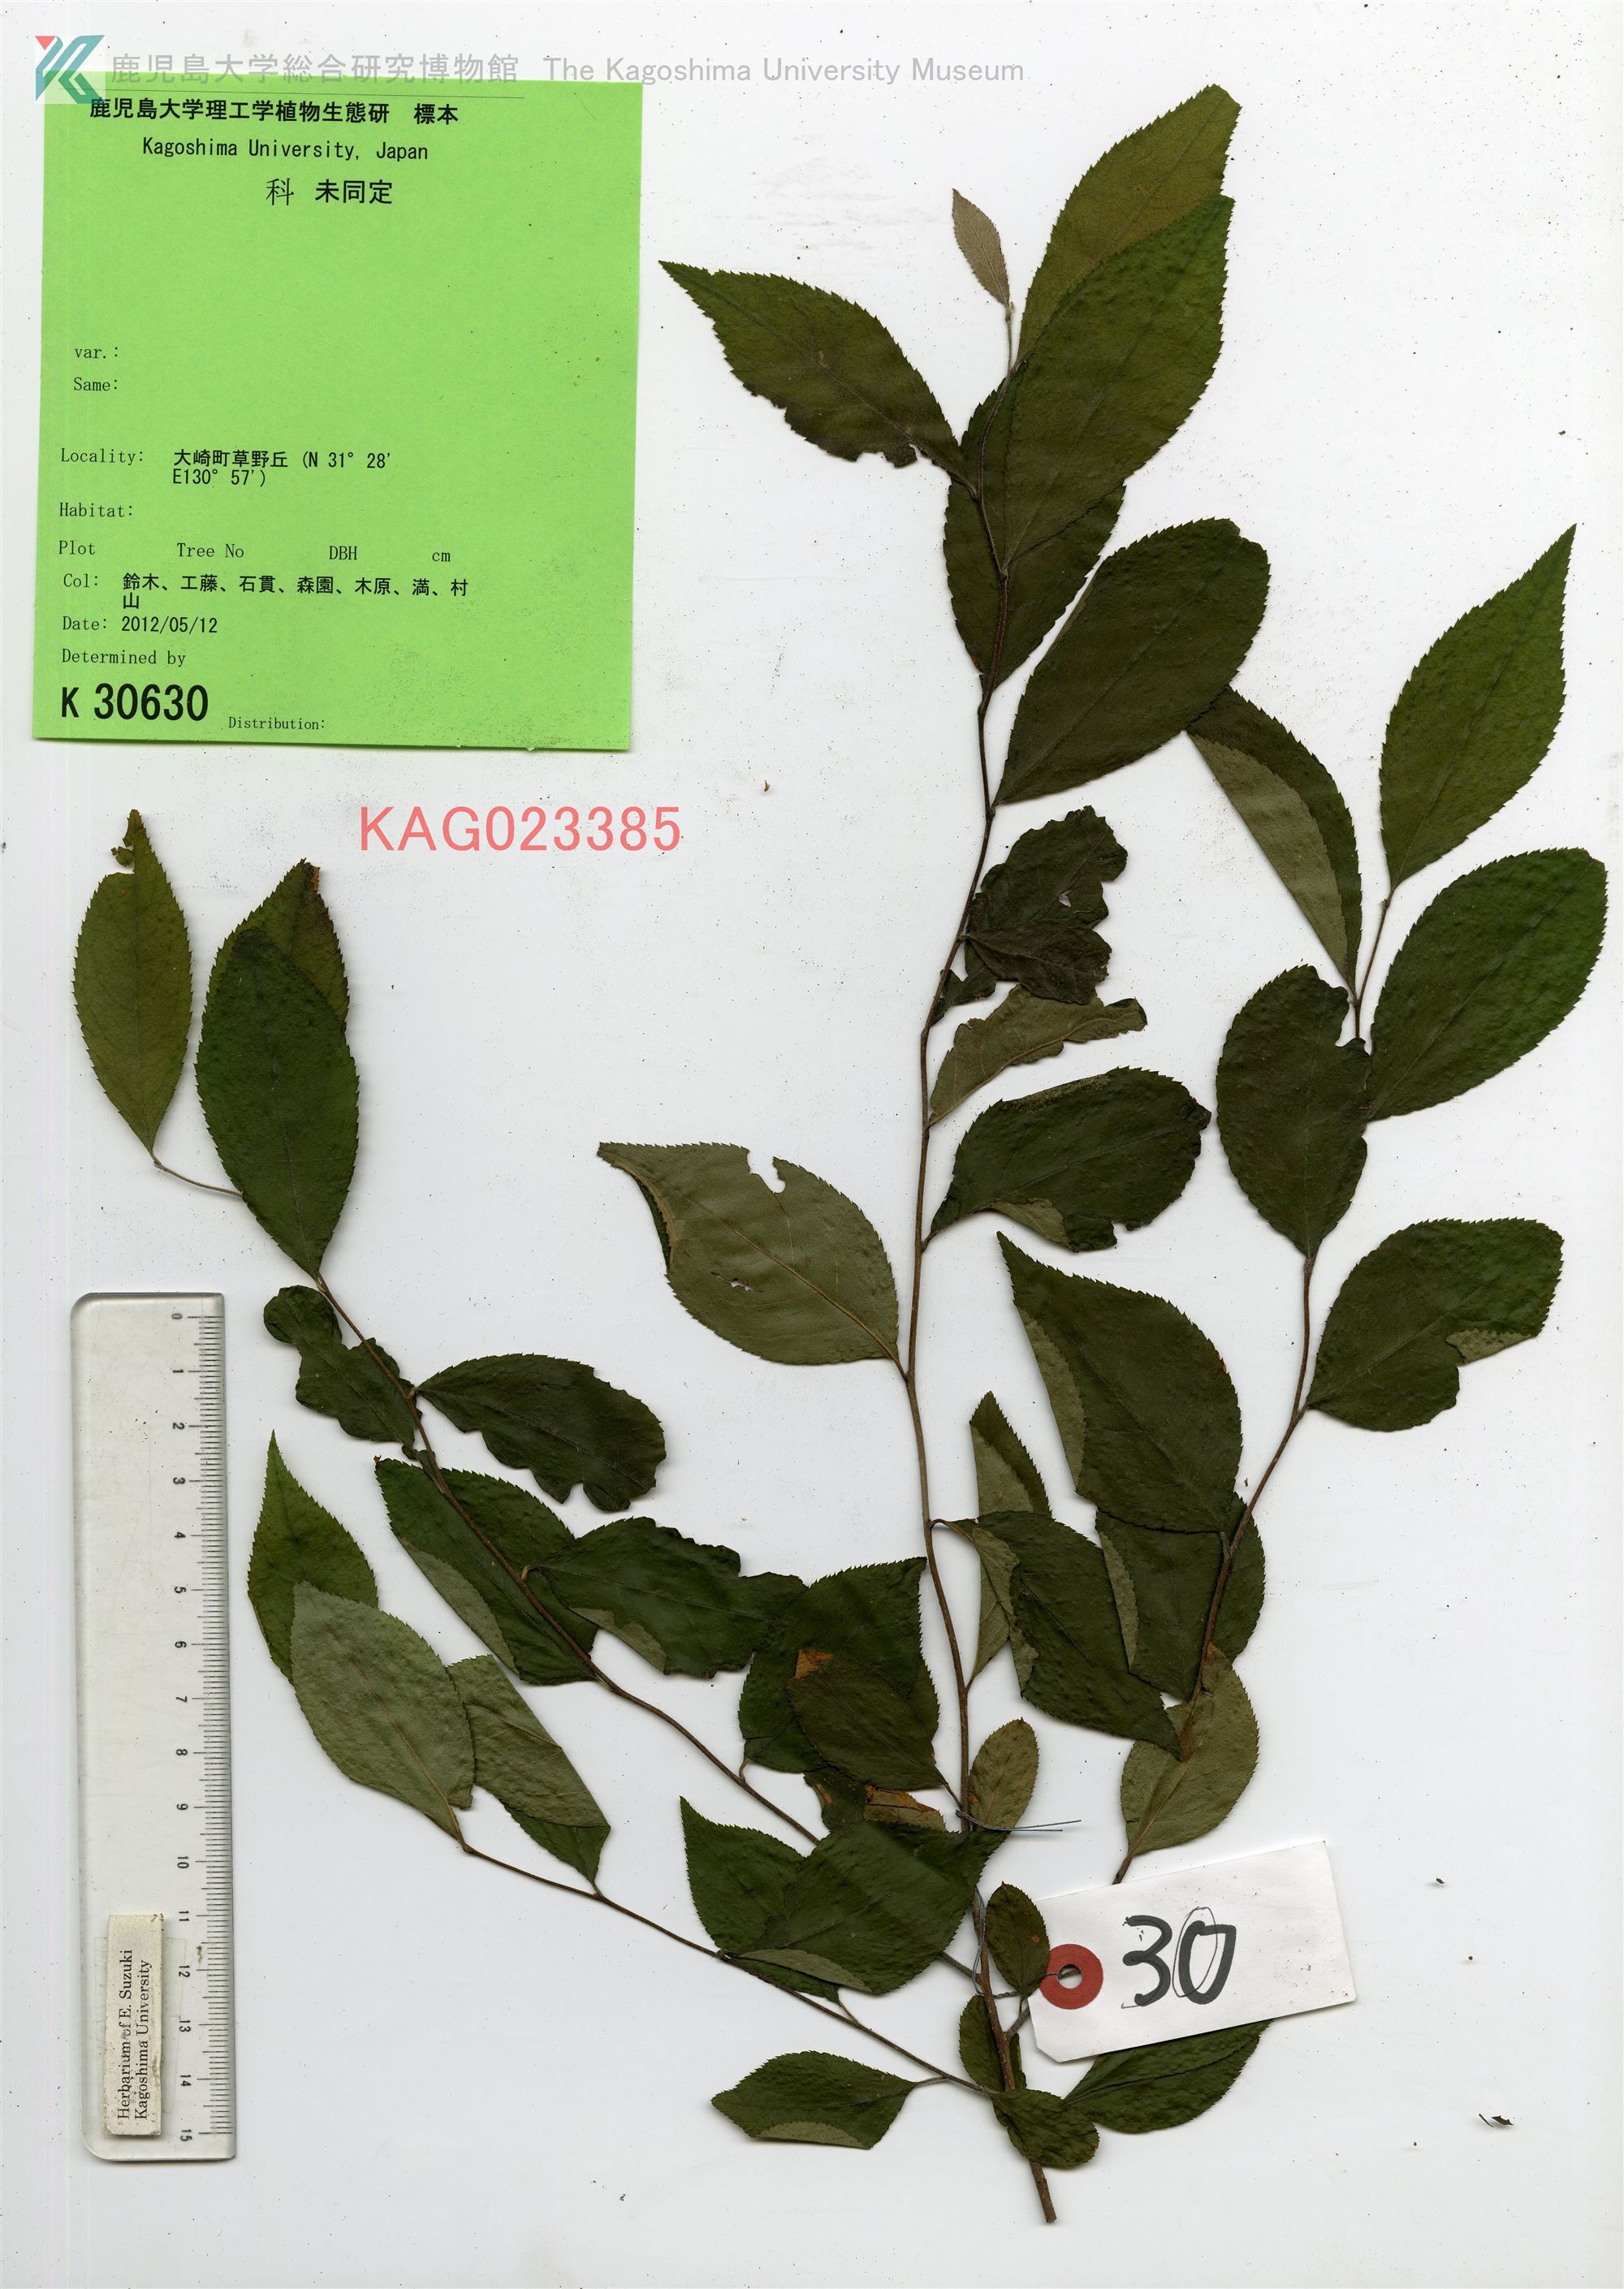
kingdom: Plantae
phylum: Tracheophyta
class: Magnoliopsida
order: Rosales
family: Rosaceae
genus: Pourthiaea
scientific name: Pourthiaea villosa
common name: カマツカ
